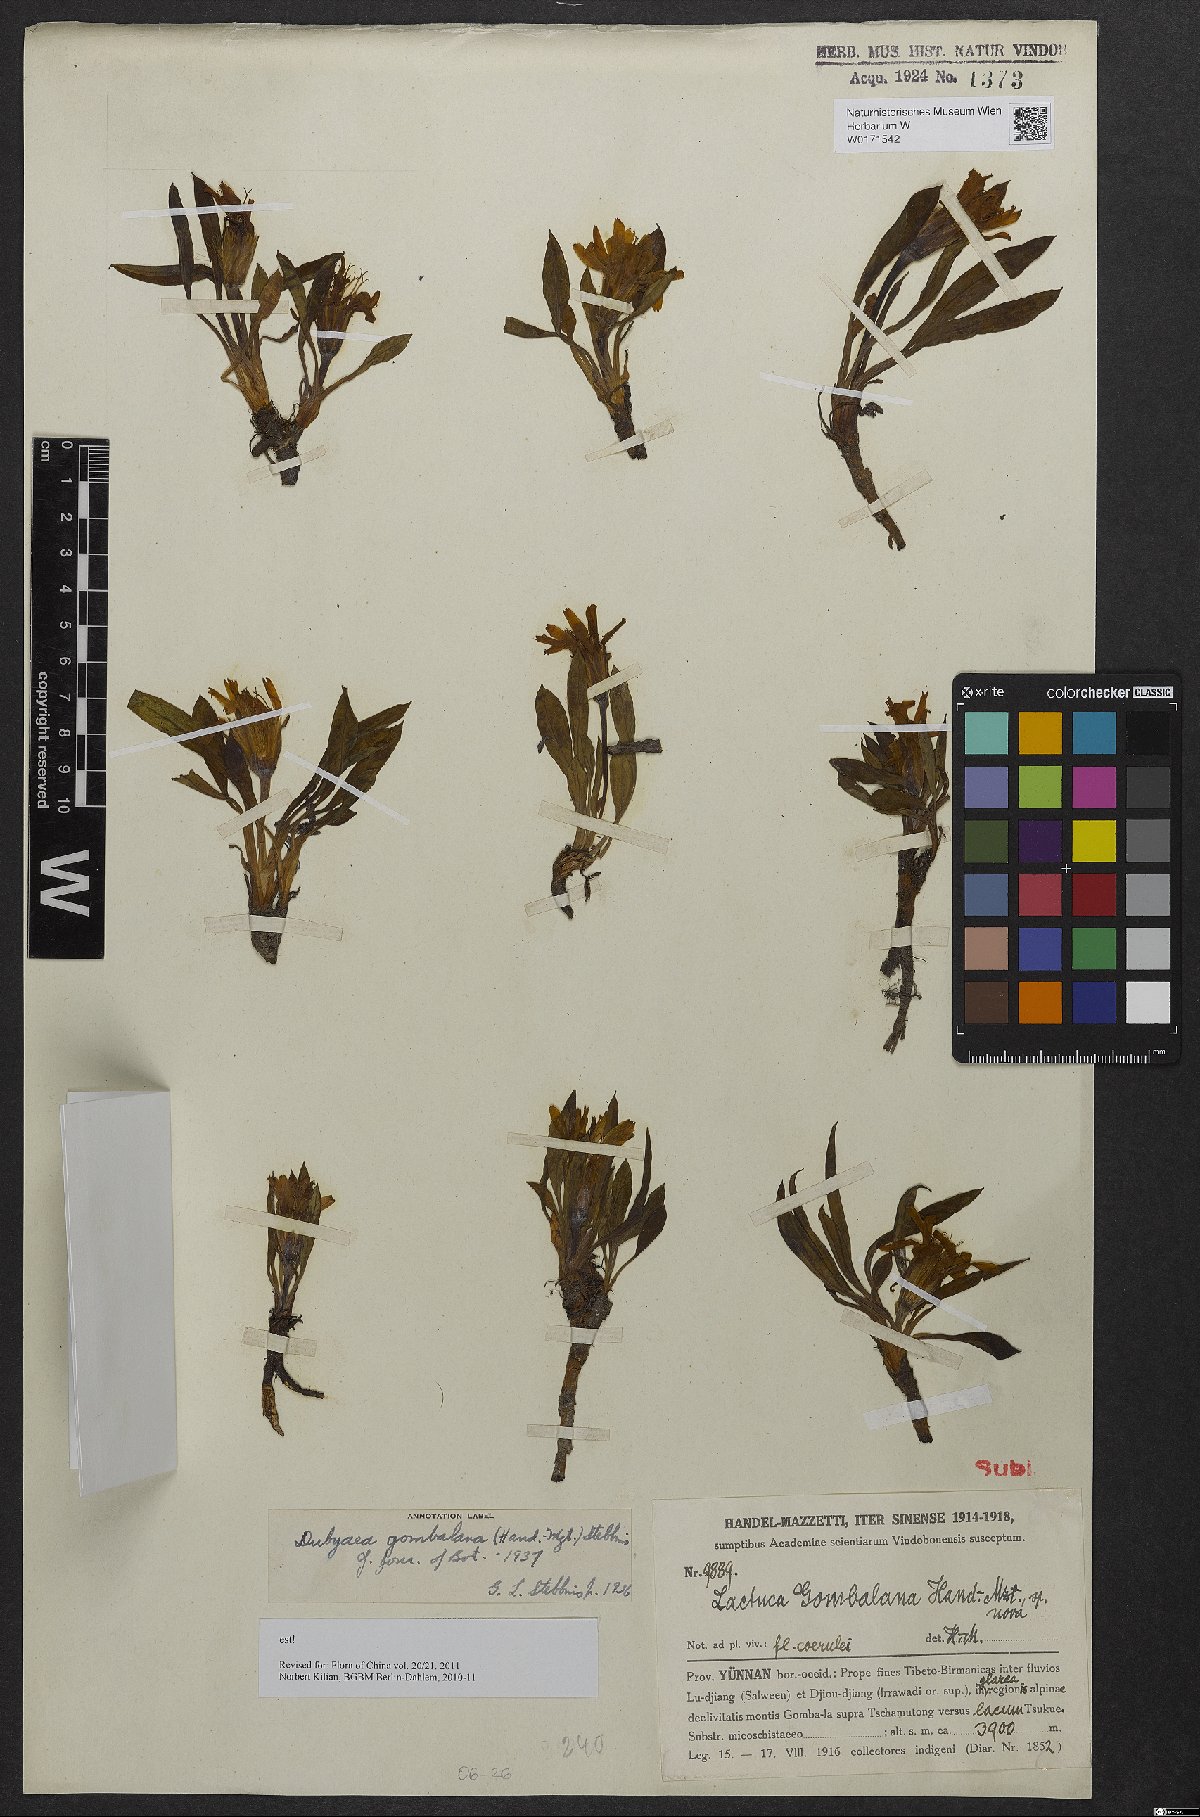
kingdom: Plantae
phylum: Tracheophyta
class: Magnoliopsida
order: Asterales
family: Asteraceae
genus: Lihengia
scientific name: Lihengia gombalana
